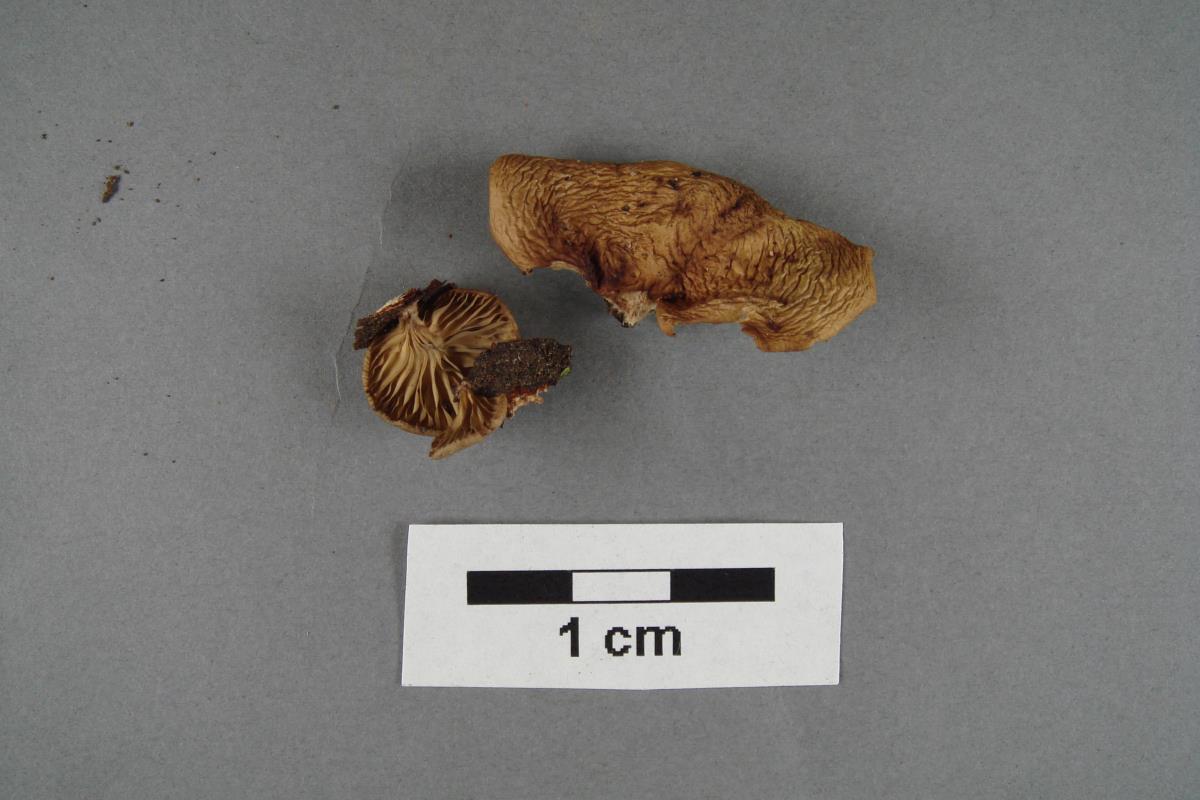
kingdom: Fungi
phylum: Basidiomycota
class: Agaricomycetes
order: Agaricales
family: Pleurotaceae
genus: Pleurotopsis
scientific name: Pleurotopsis subgrisea
